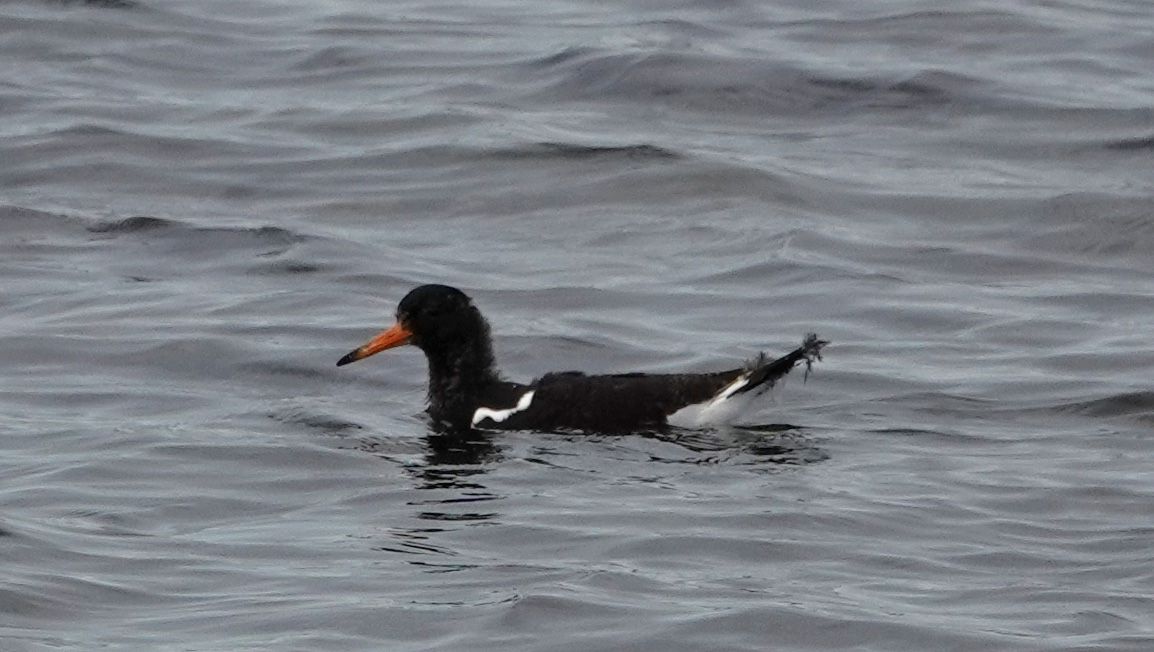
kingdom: Animalia
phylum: Chordata
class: Aves
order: Charadriiformes
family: Haematopodidae
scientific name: Haematopodidae
